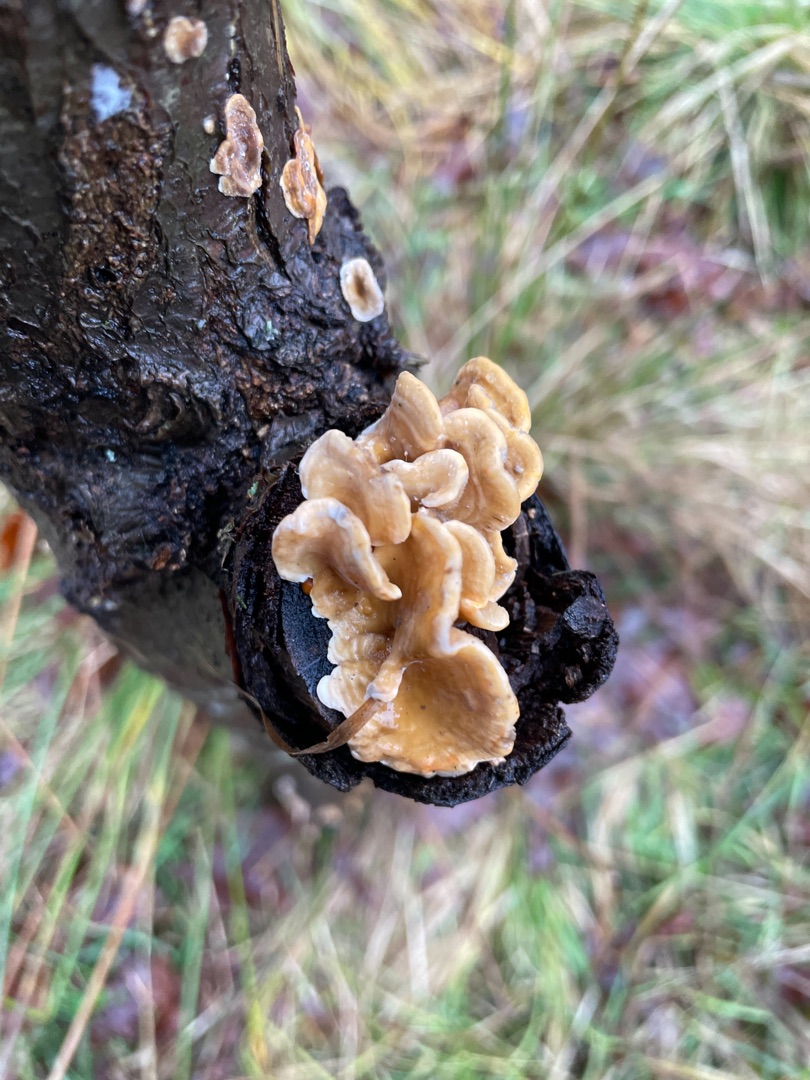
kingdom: Fungi
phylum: Basidiomycota
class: Agaricomycetes
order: Russulales
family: Stereaceae
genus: Stereum
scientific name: Stereum hirsutum
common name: Håret lædersvamp
